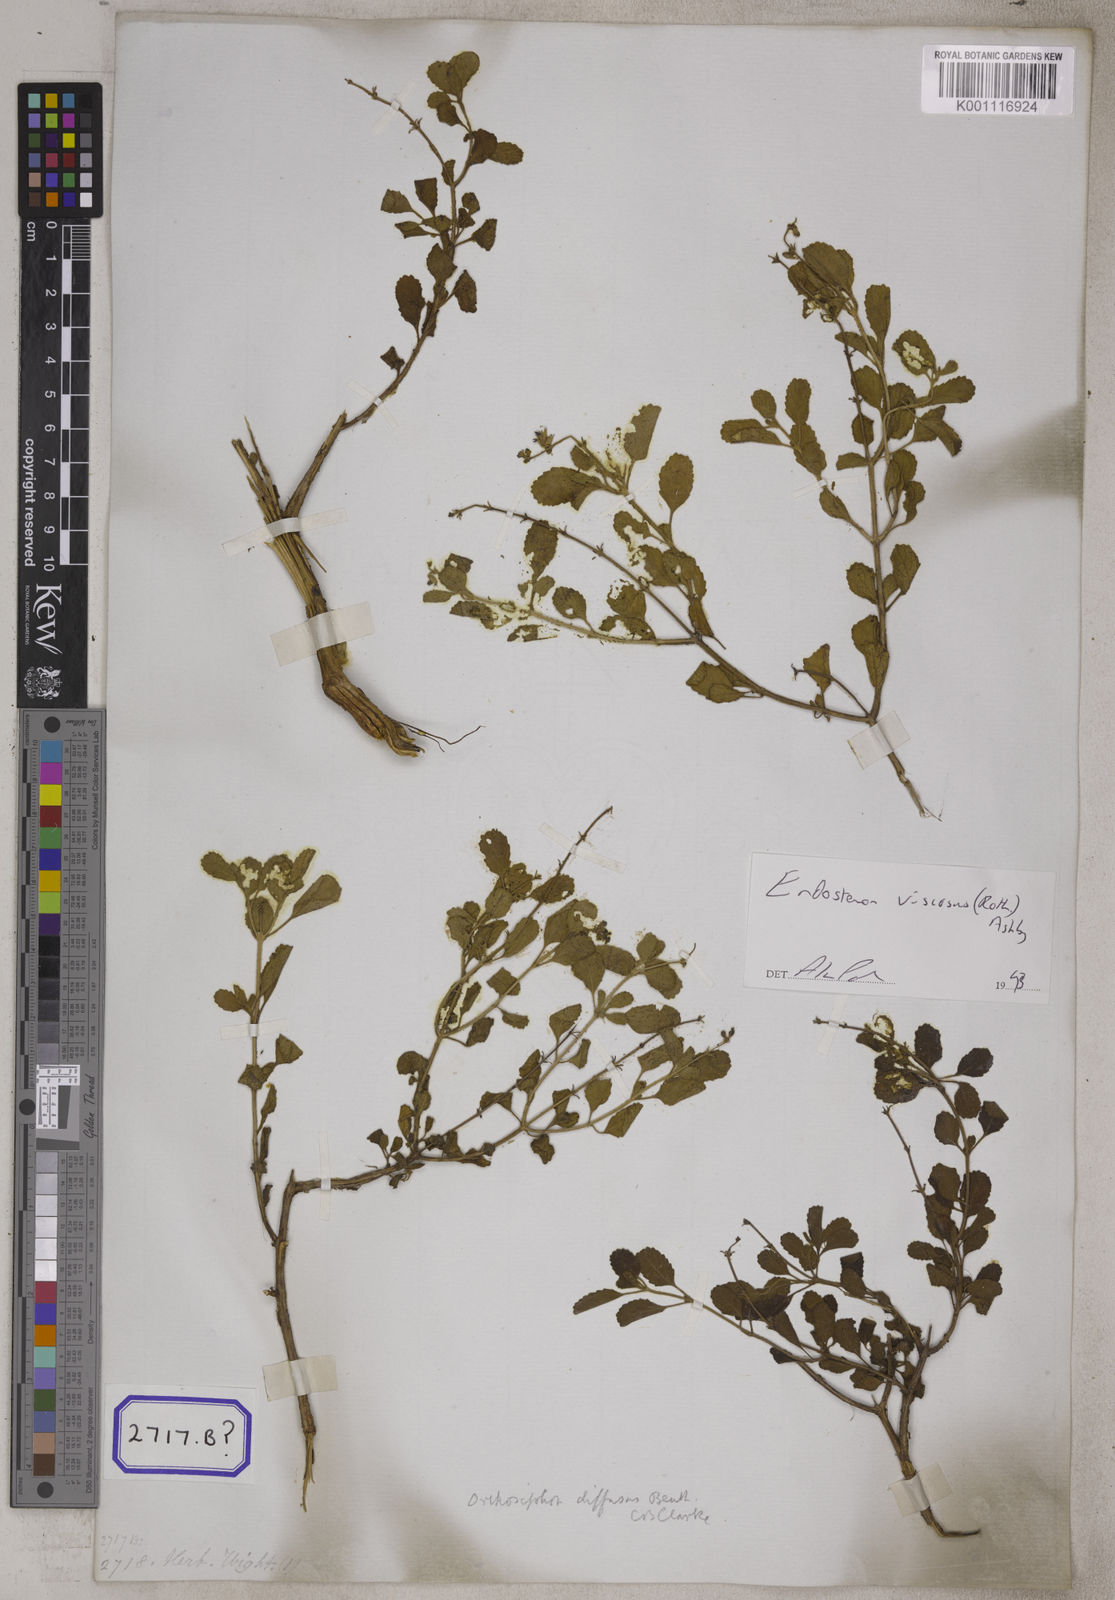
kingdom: Plantae
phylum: Tracheophyta
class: Magnoliopsida
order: Lamiales
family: Lamiaceae
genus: Ocimum
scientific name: Ocimum
